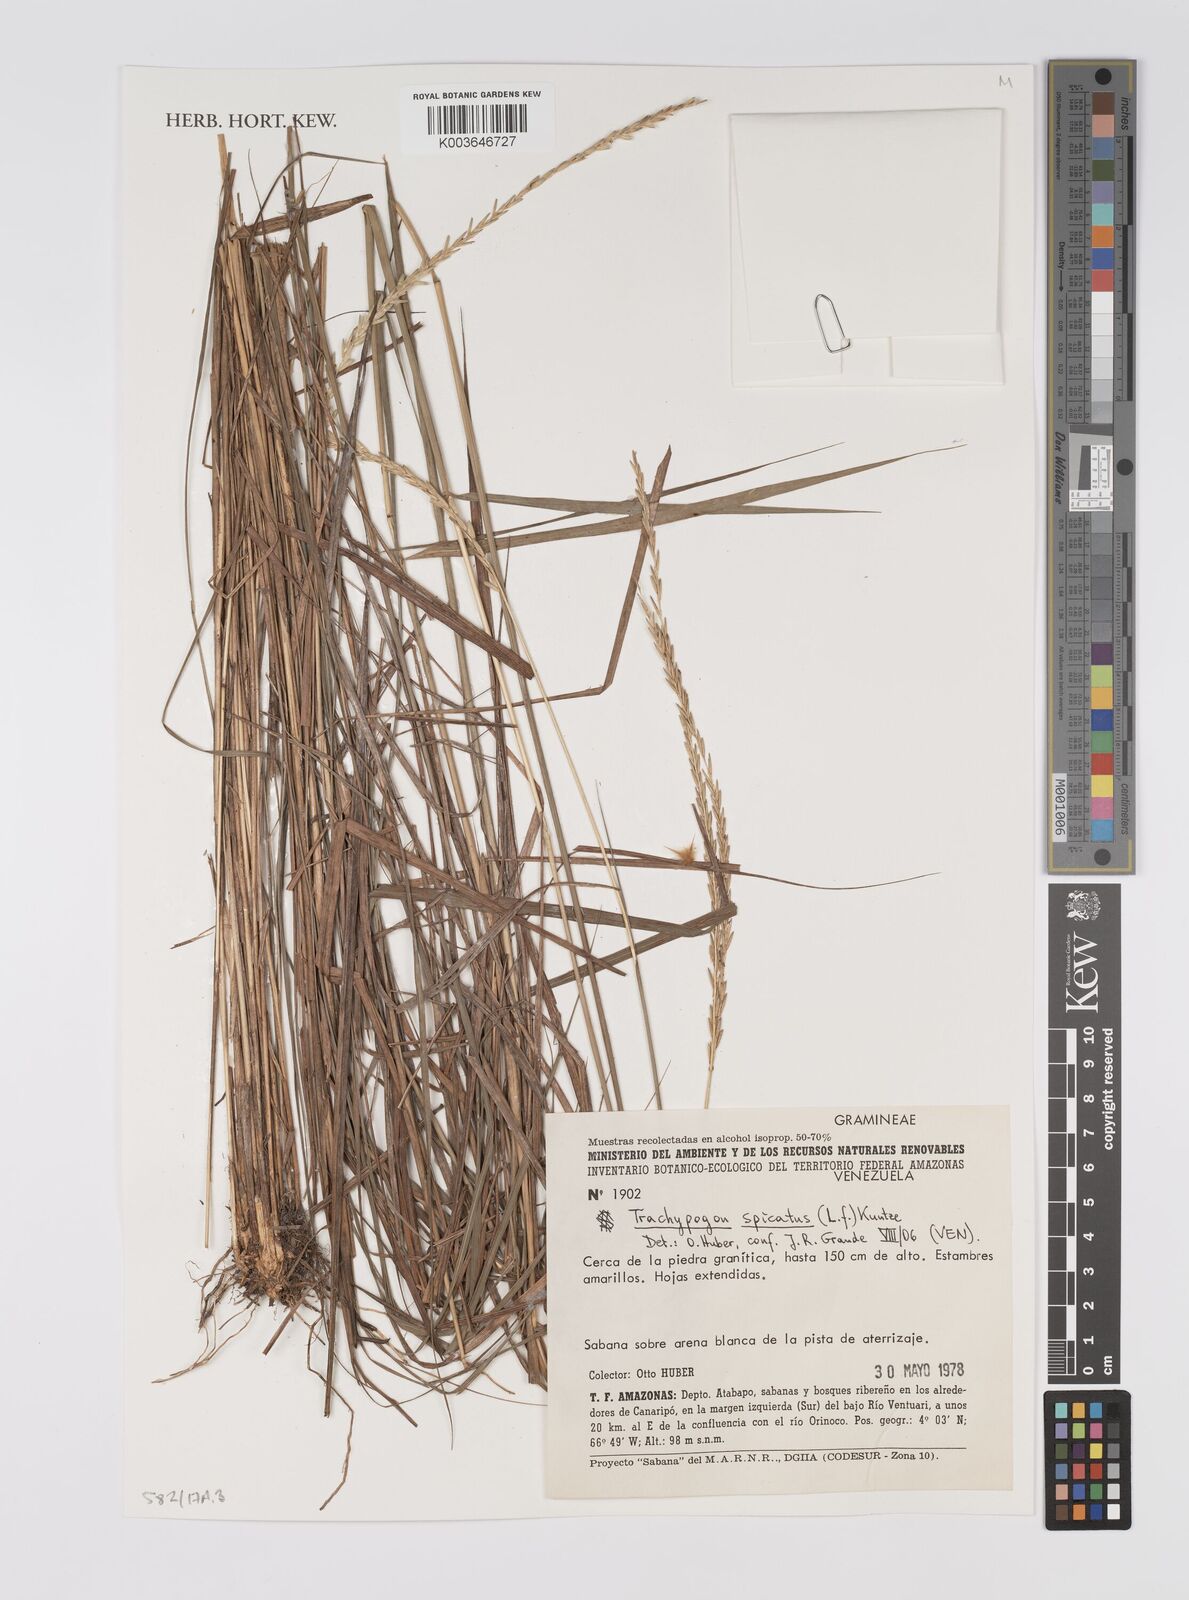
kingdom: Plantae
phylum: Tracheophyta
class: Liliopsida
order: Poales
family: Poaceae
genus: Trachypogon
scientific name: Trachypogon spicatus
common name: Crinkle-awn
